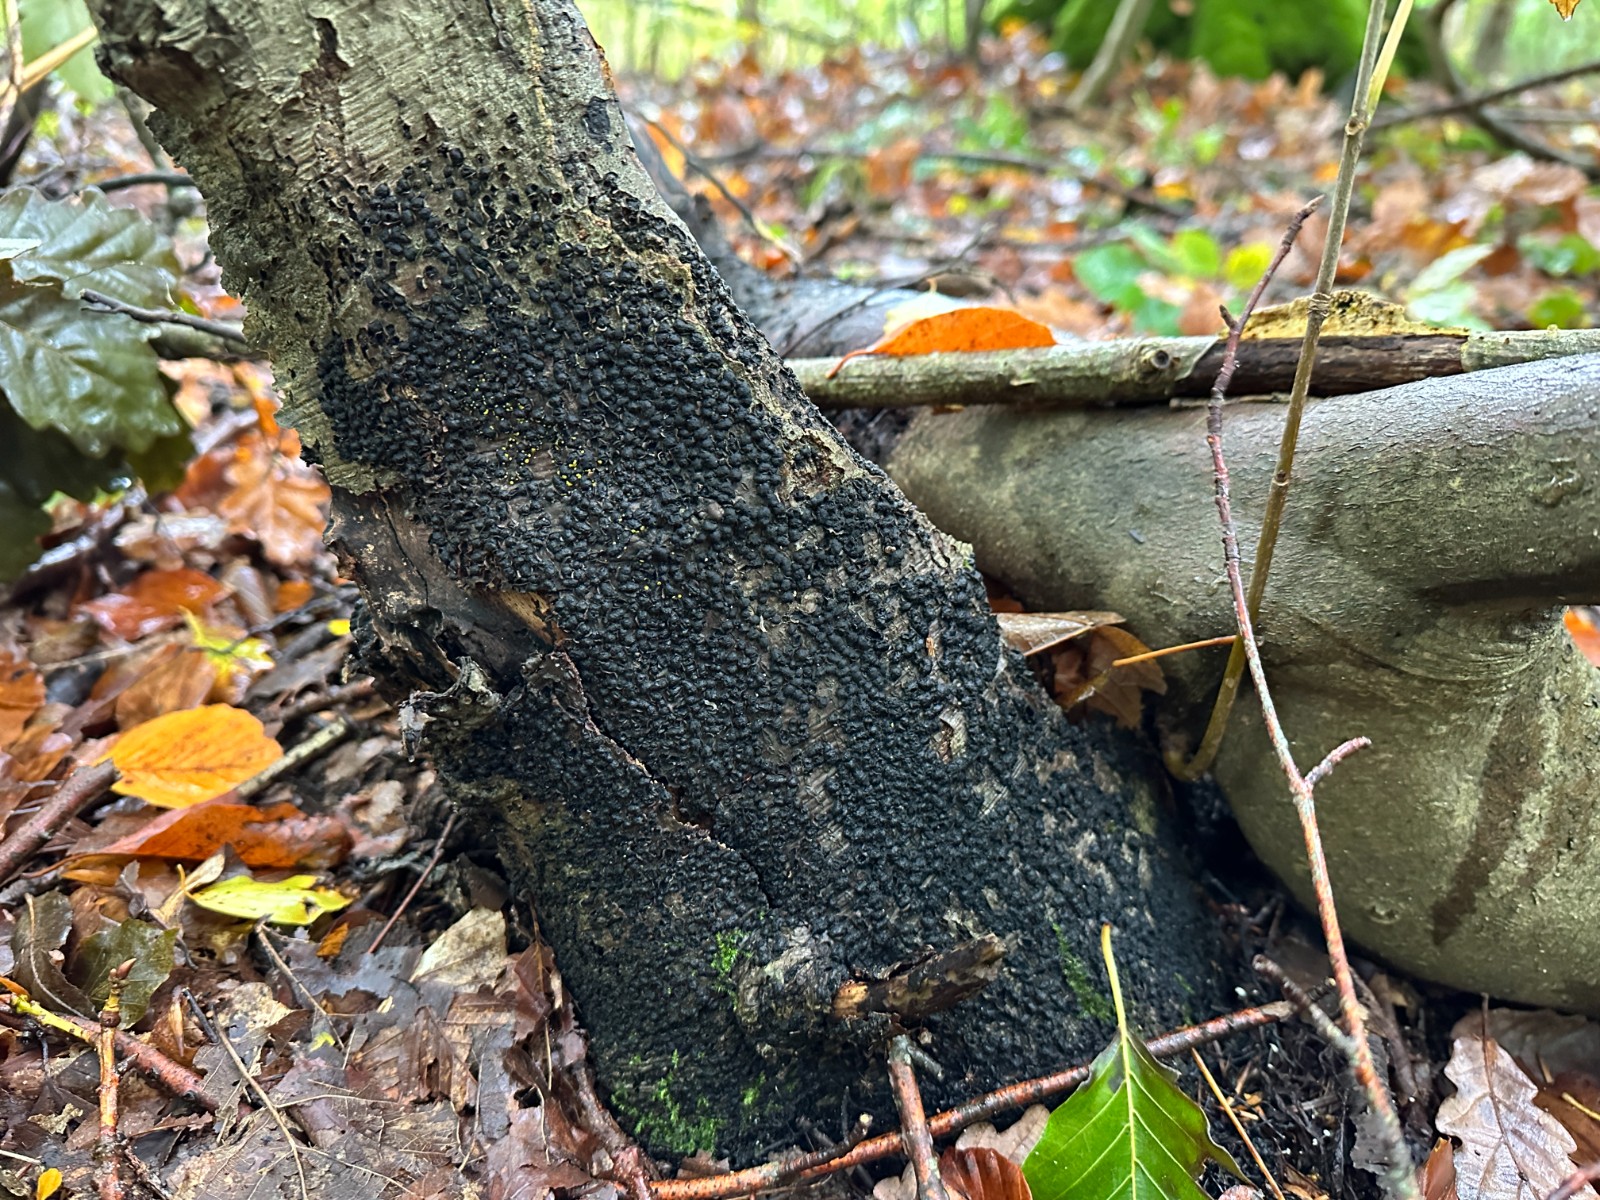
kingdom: Fungi
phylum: Ascomycota
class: Sordariomycetes
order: Xylariales
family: Melogrammataceae
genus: Melogramma
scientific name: Melogramma spiniferum
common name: bøgefod-kulhals
